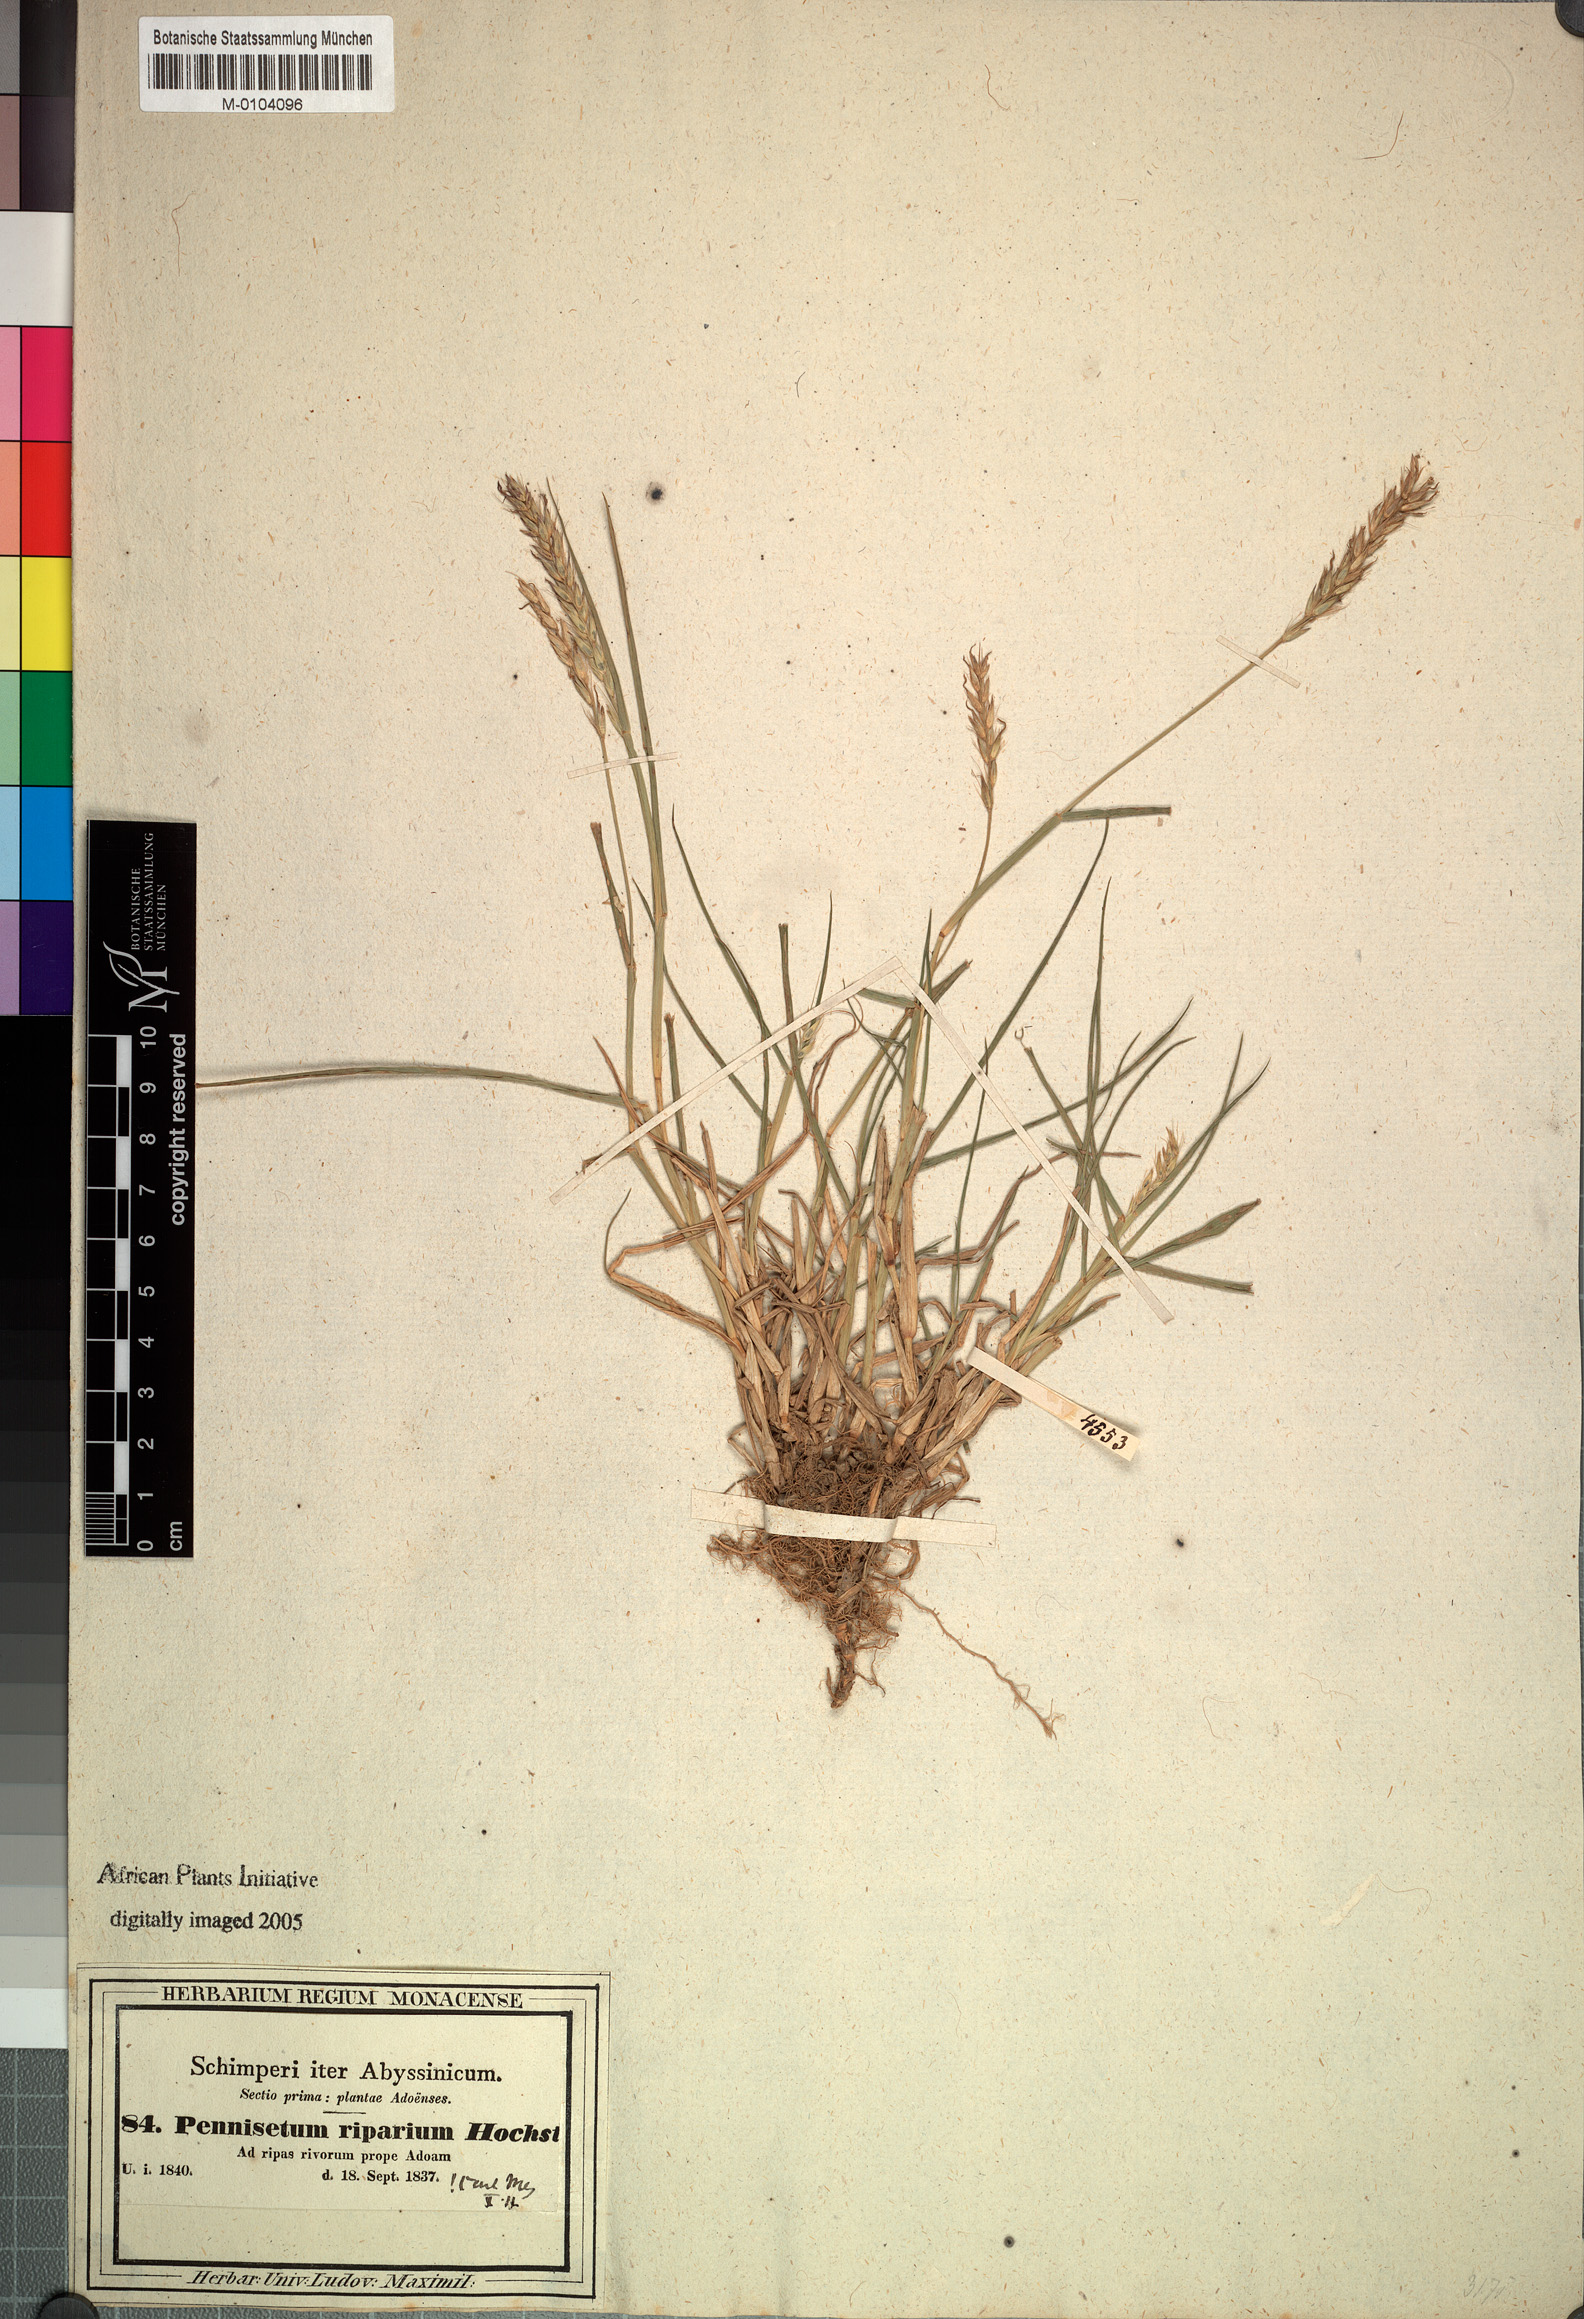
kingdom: Plantae
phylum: Tracheophyta
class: Liliopsida
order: Poales
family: Poaceae
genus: Cenchrus
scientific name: Cenchrus riparius
